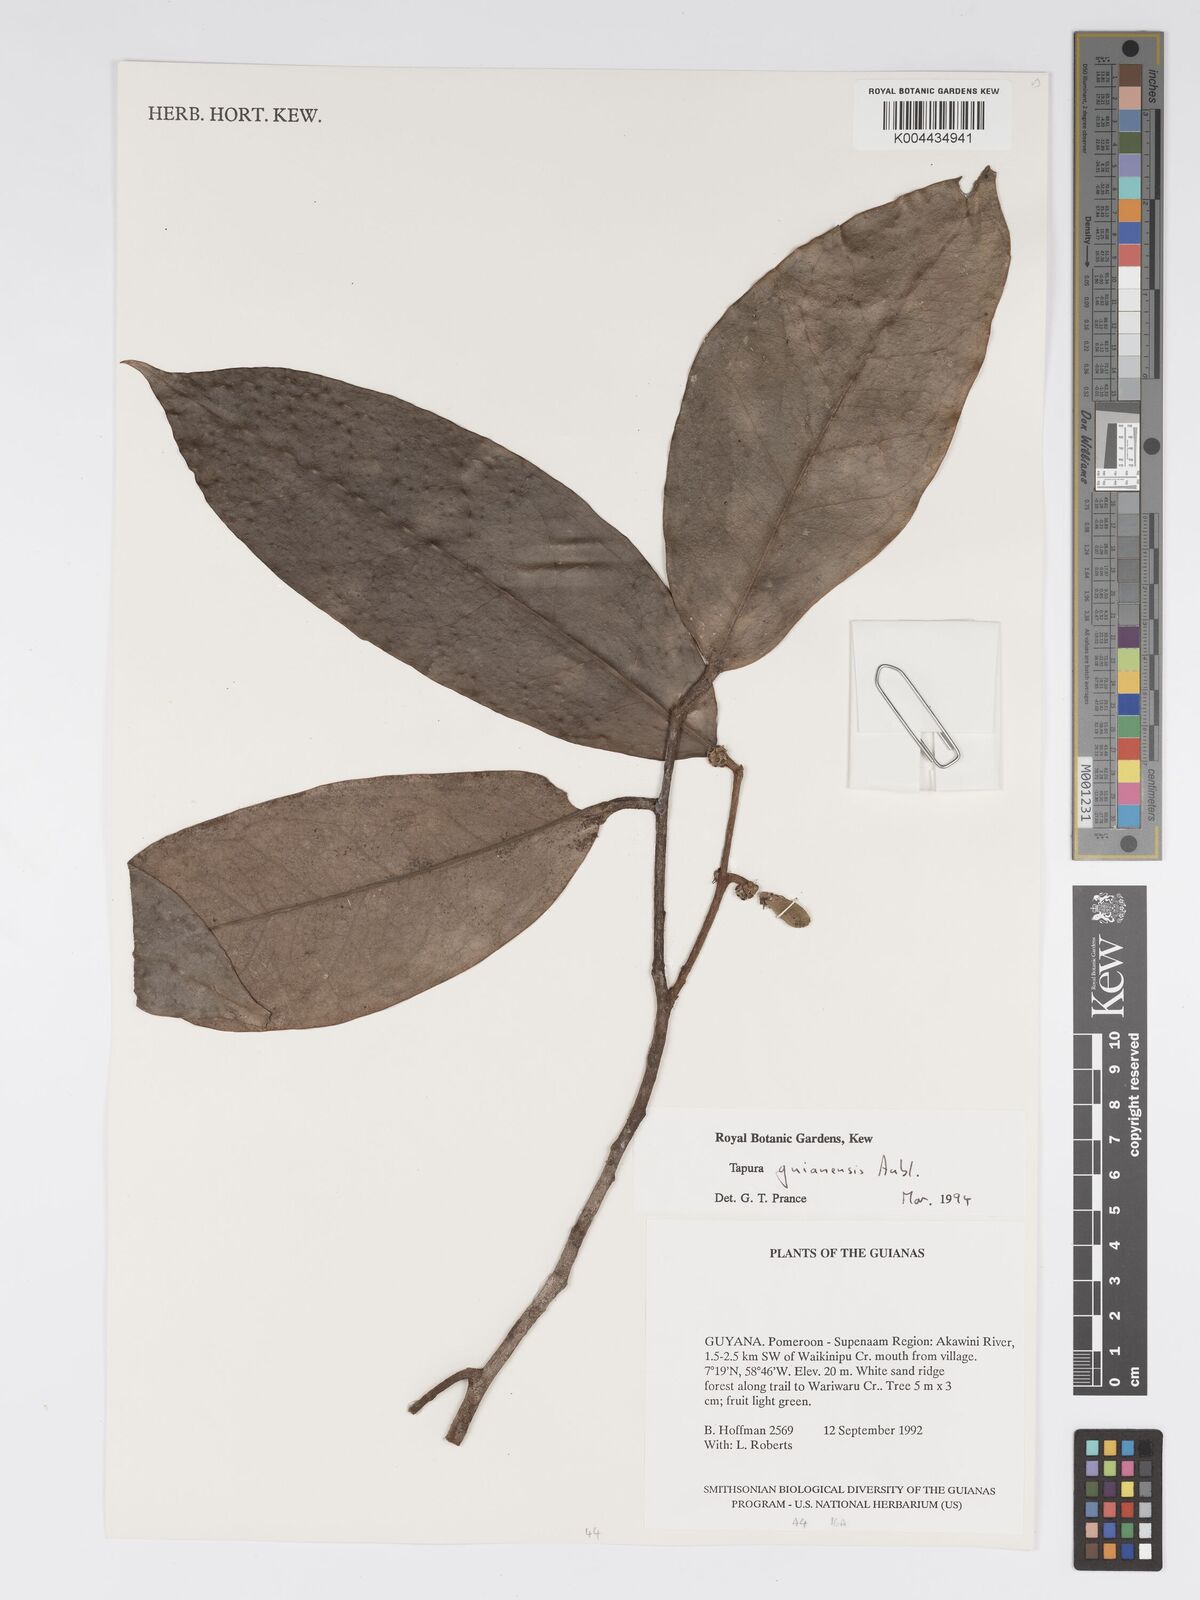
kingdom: Plantae
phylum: Tracheophyta
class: Magnoliopsida
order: Malpighiales
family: Dichapetalaceae
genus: Tapura
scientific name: Tapura guianensis
